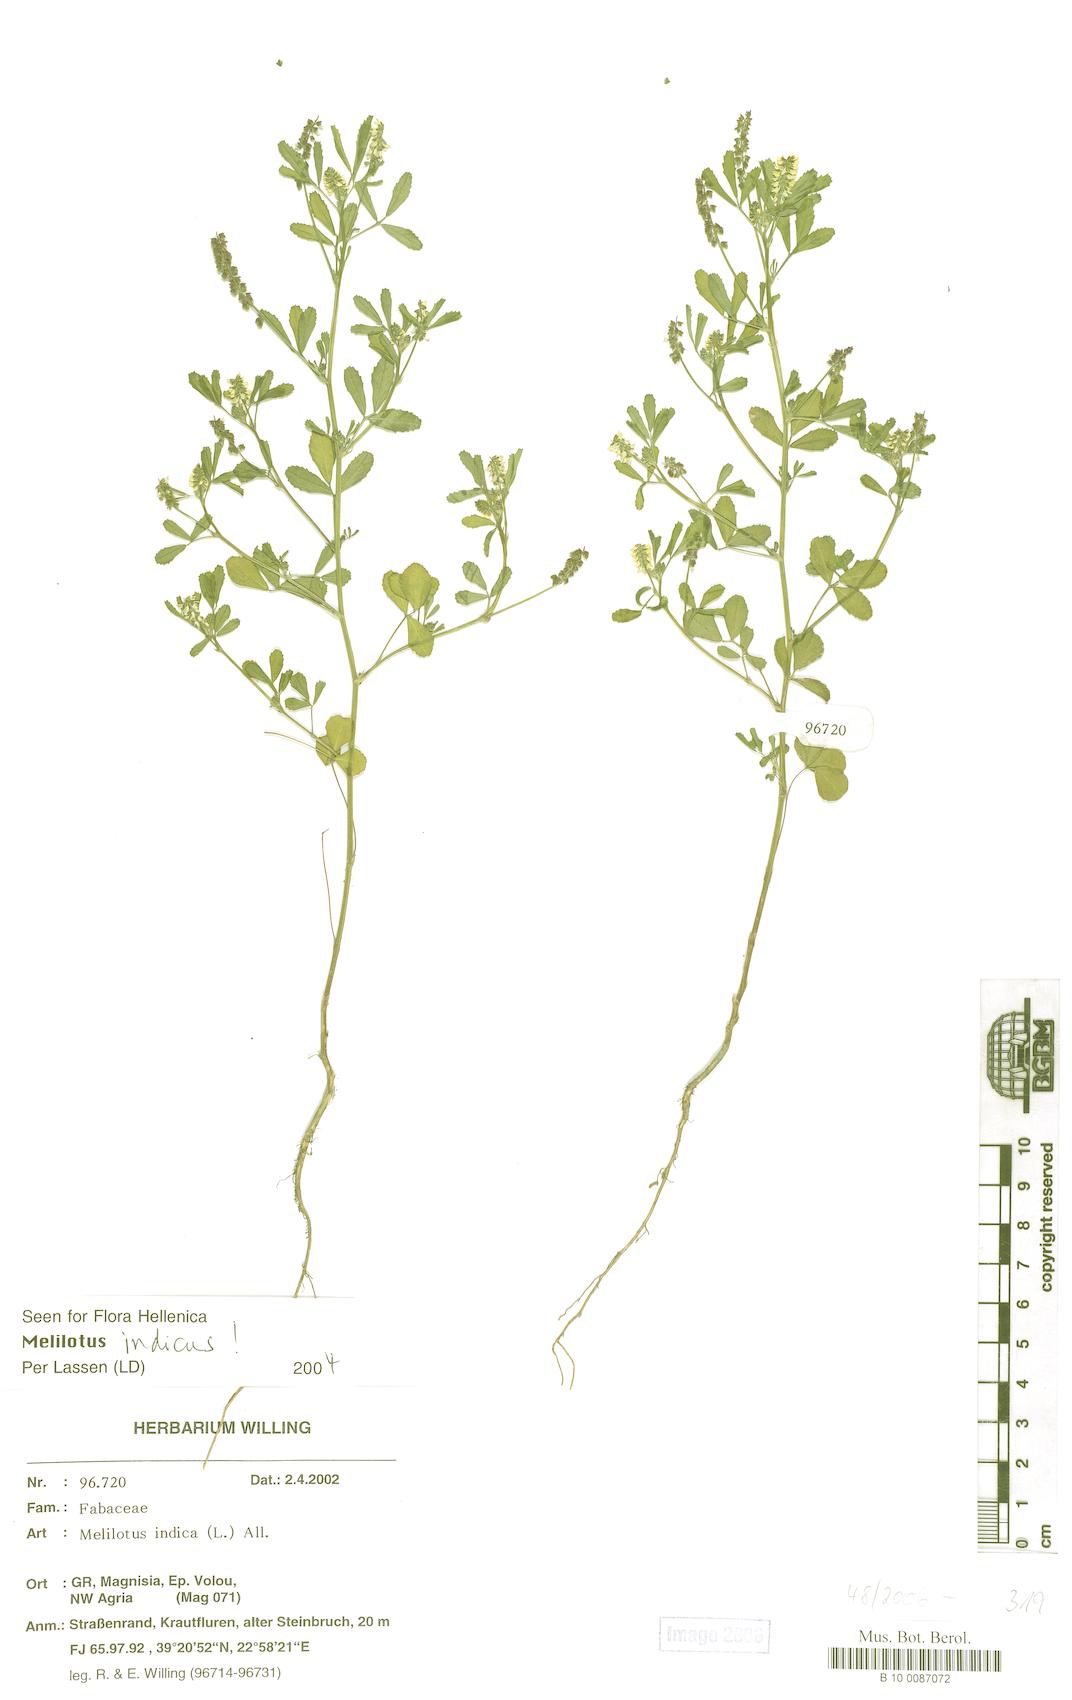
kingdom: Plantae
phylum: Tracheophyta
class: Magnoliopsida
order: Fabales
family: Fabaceae
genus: Melilotus
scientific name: Melilotus indicus
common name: Small melilot
